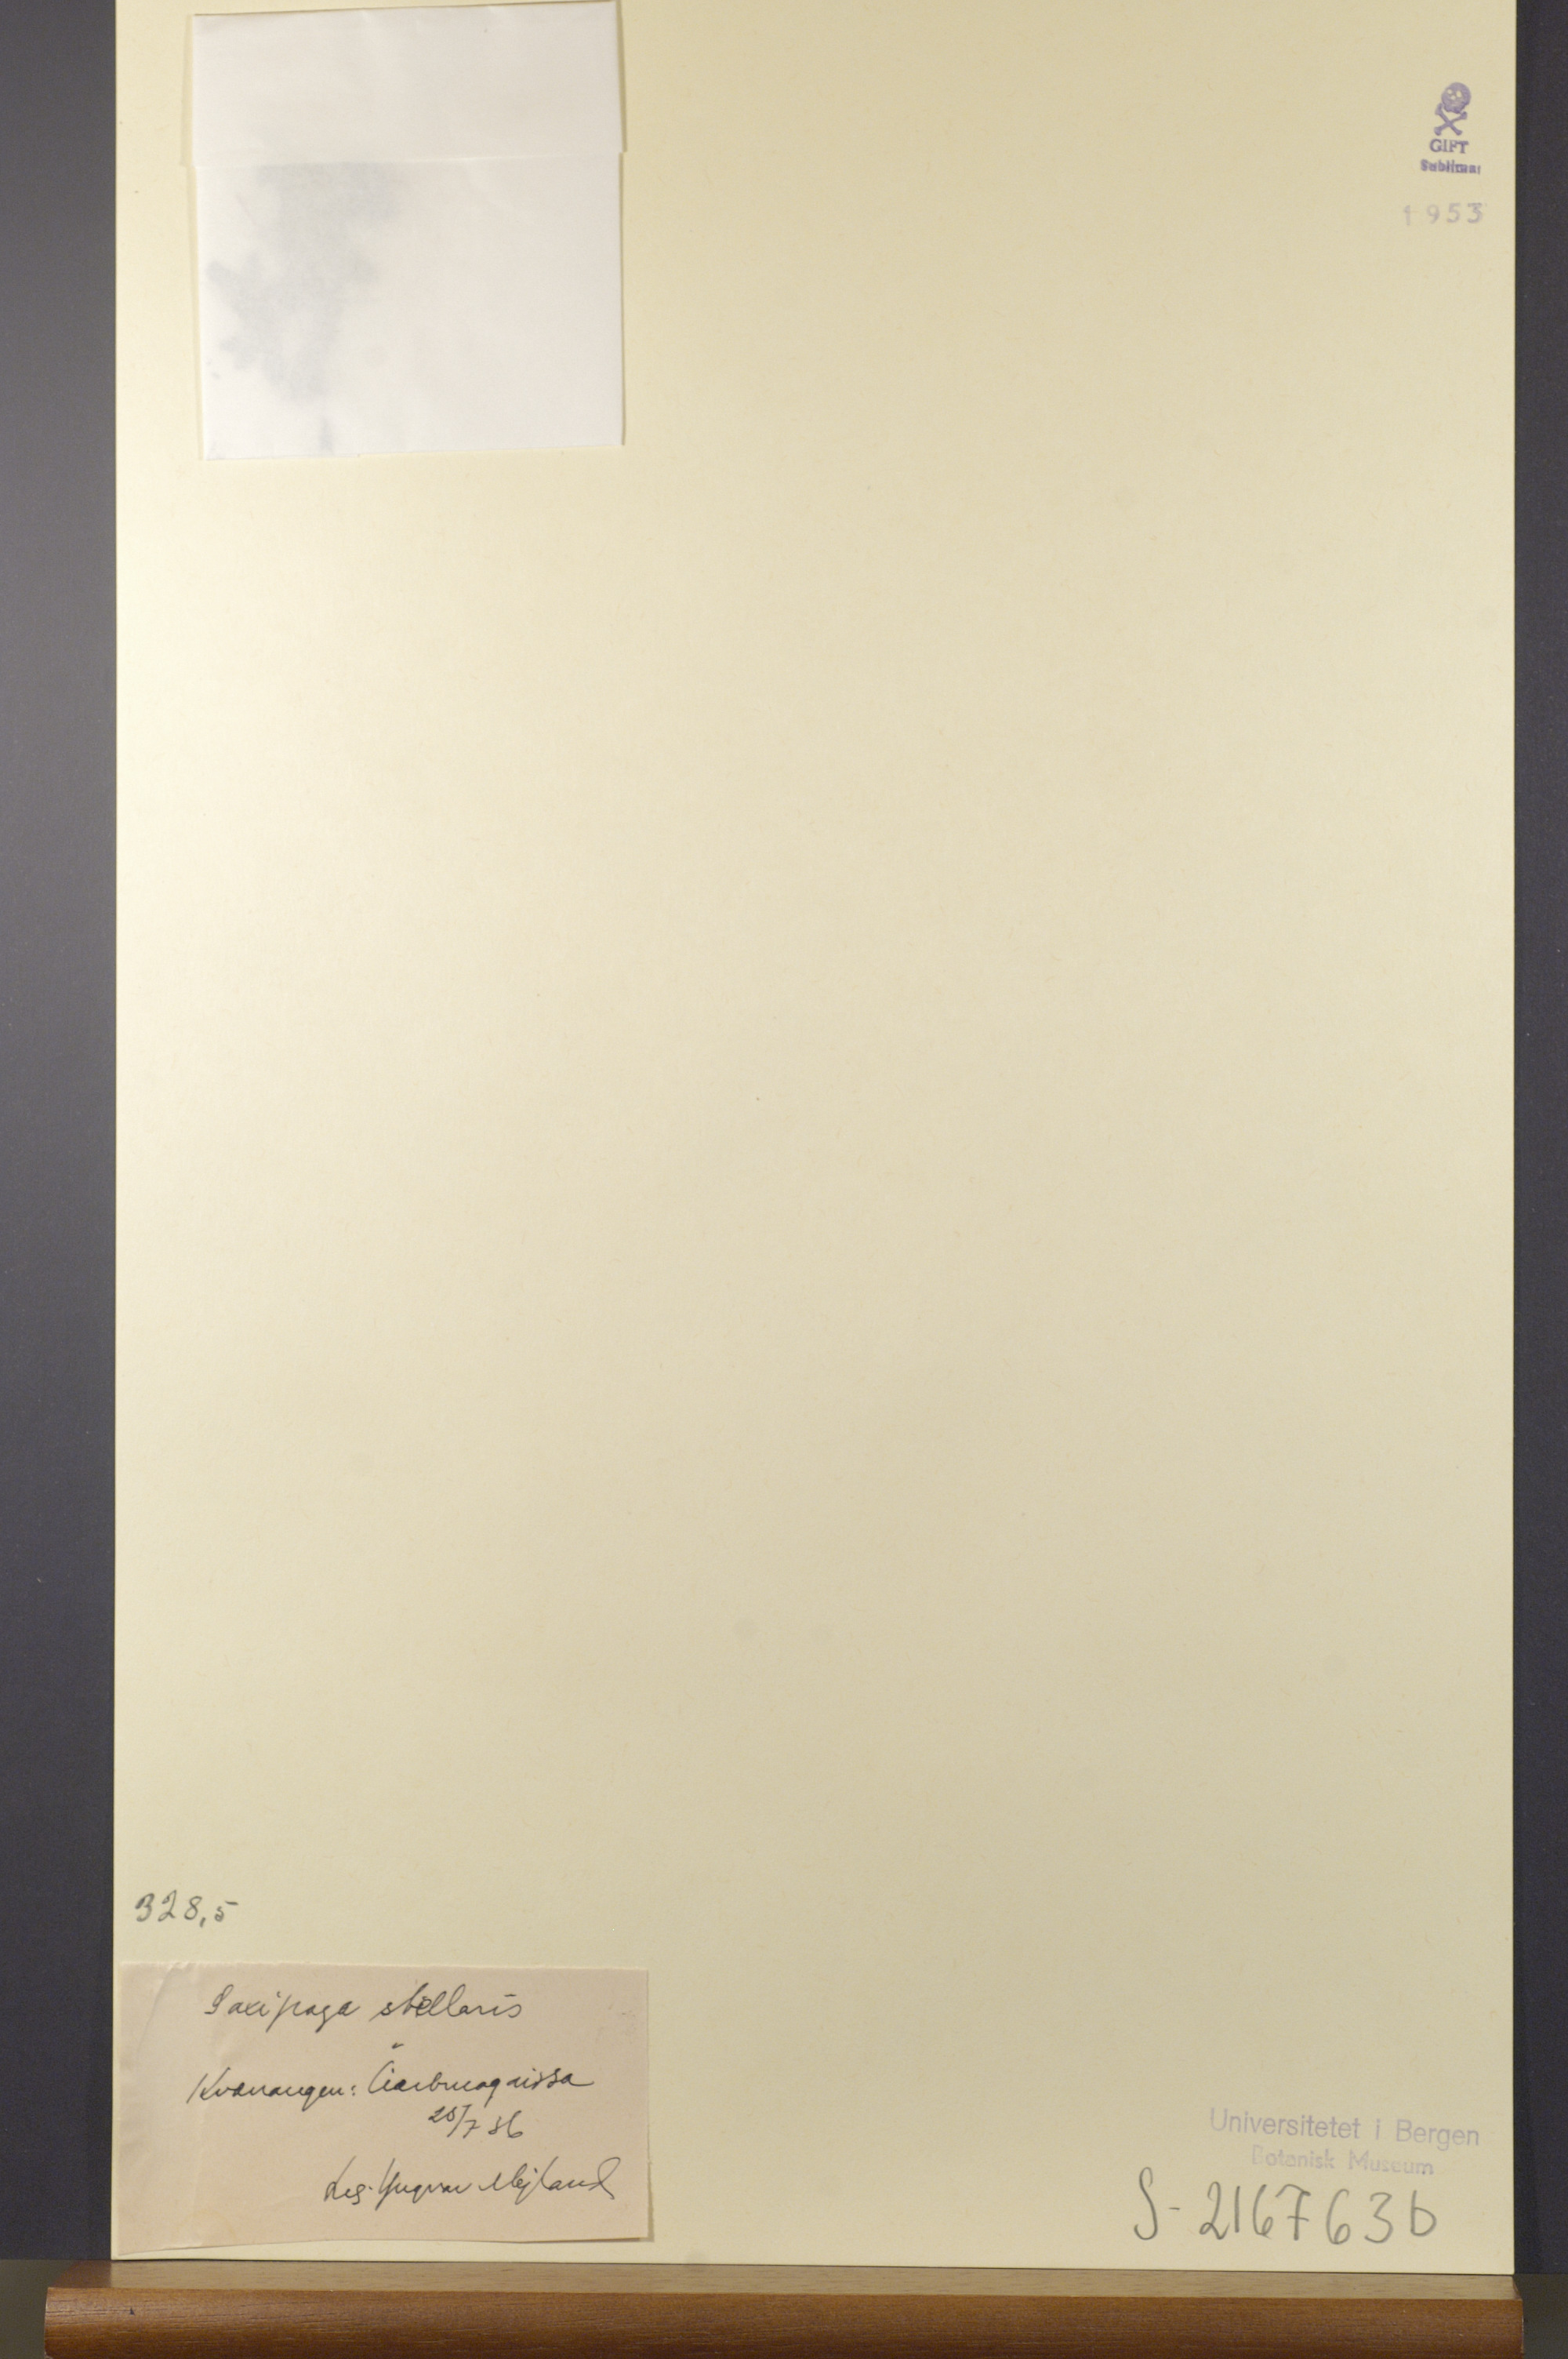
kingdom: Plantae
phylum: Tracheophyta
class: Magnoliopsida
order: Saxifragales
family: Saxifragaceae
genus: Micranthes
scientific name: Micranthes stellaris
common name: Starry saxifrage
